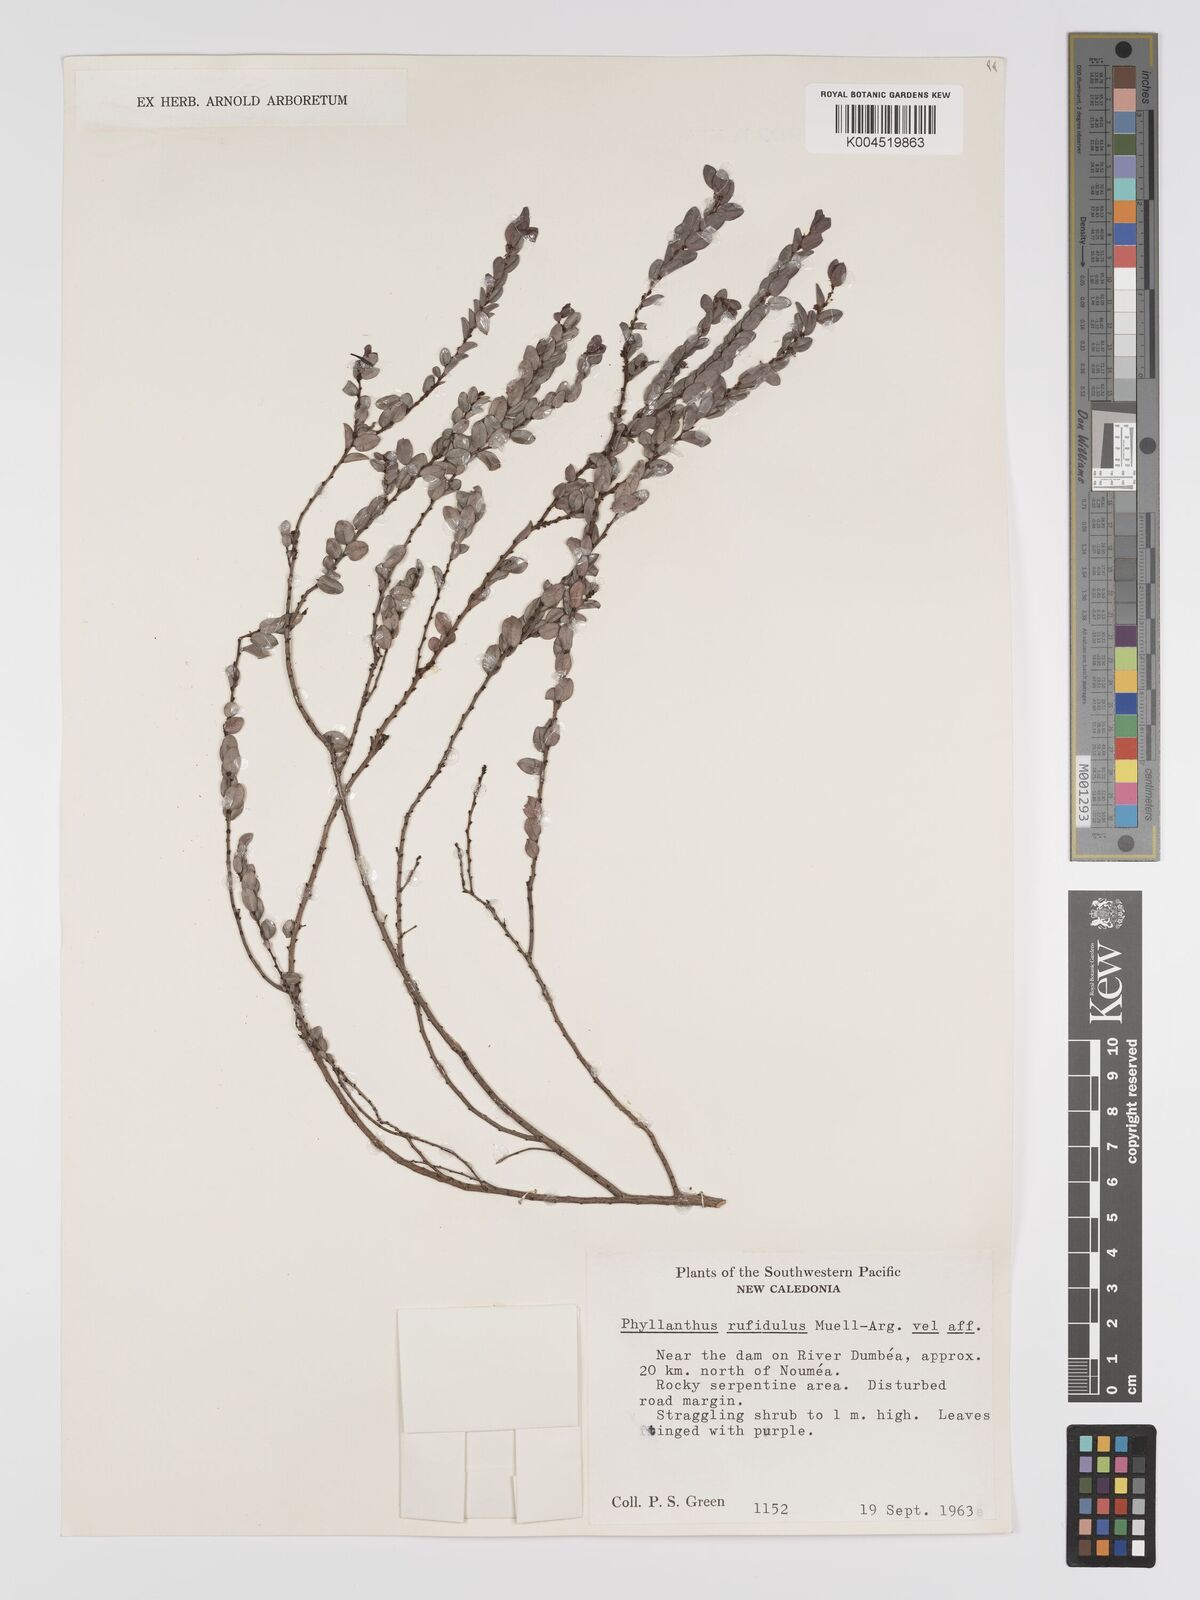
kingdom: Plantae
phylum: Tracheophyta
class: Magnoliopsida
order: Malpighiales
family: Phyllanthaceae
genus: Phyllanthus
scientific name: Phyllanthus chrysanthus
